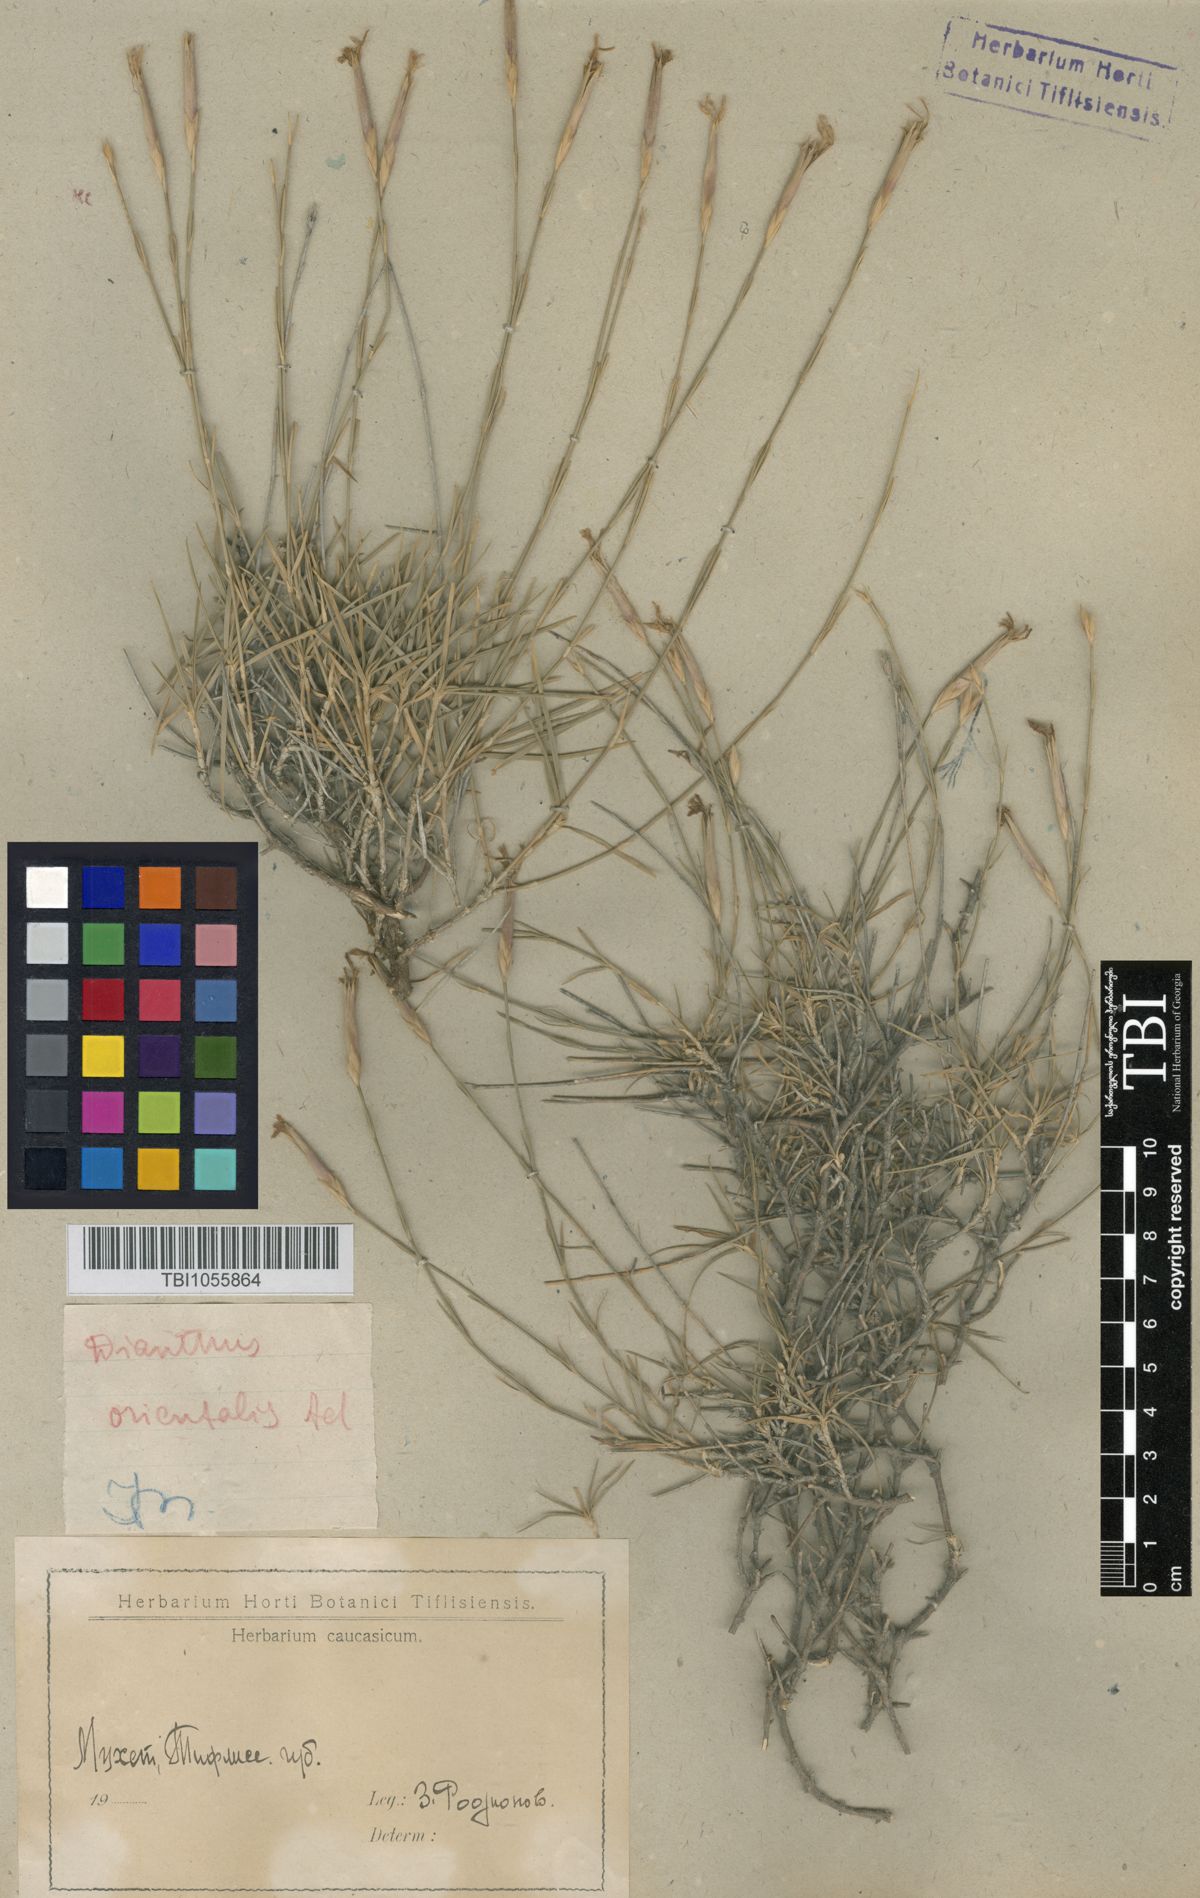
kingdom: Plantae
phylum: Tracheophyta
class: Magnoliopsida
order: Caryophyllales
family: Caryophyllaceae
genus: Dianthus
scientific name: Dianthus orientalis
